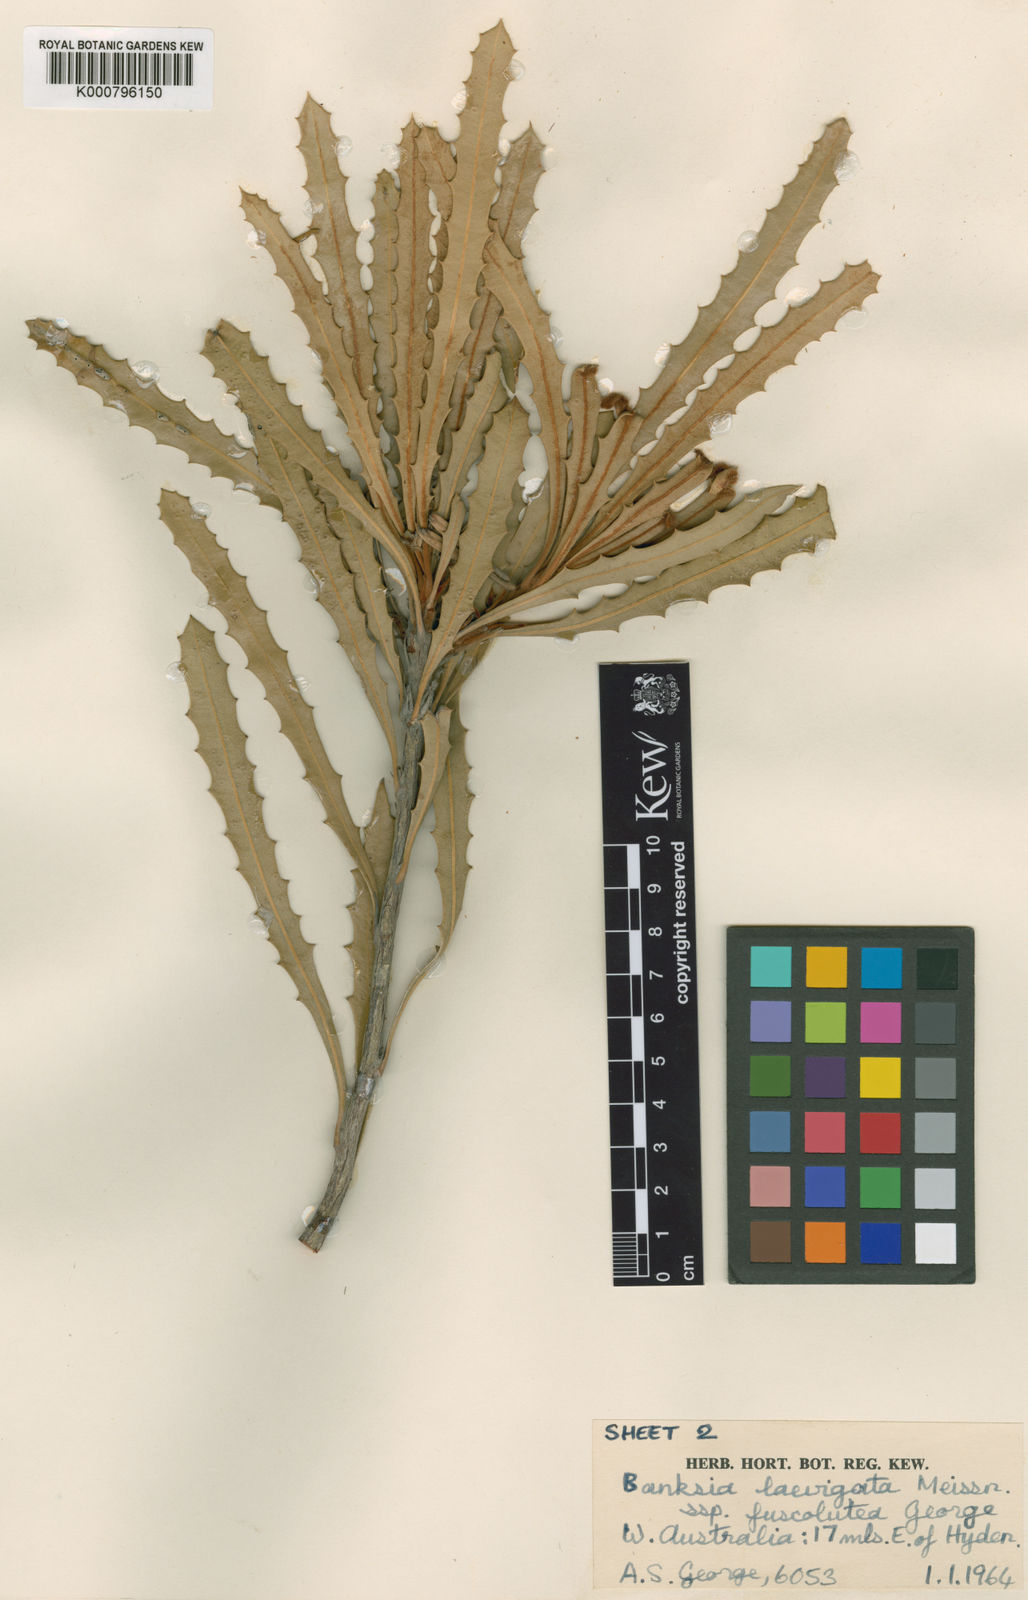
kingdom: Plantae
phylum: Tracheophyta
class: Magnoliopsida
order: Proteales
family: Proteaceae
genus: Banksia
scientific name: Banksia laevigata
